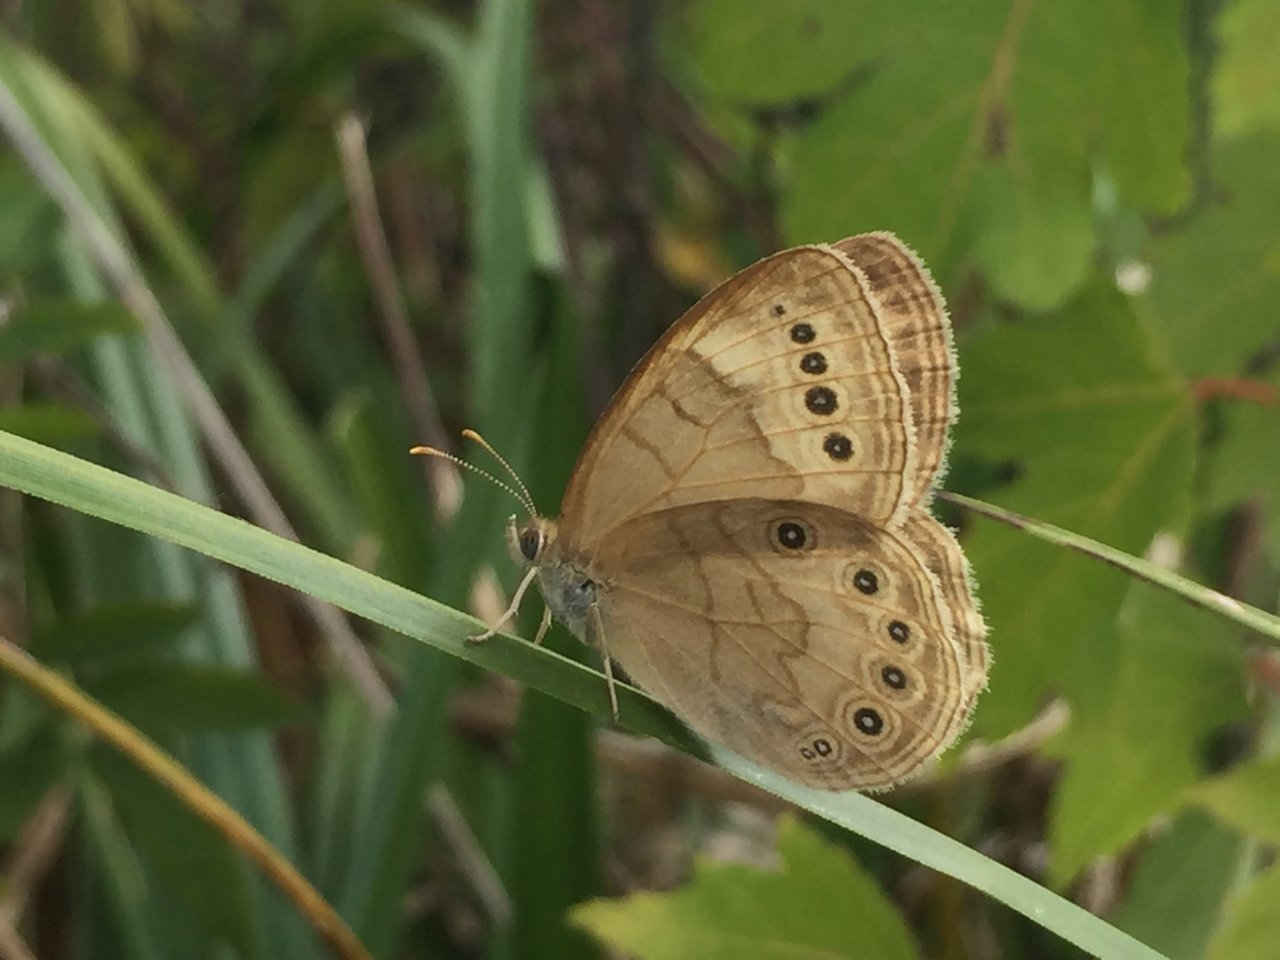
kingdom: Animalia
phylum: Arthropoda
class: Insecta
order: Lepidoptera
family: Nymphalidae
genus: Lethe
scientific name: Lethe eurydice
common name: Eyed Brown
